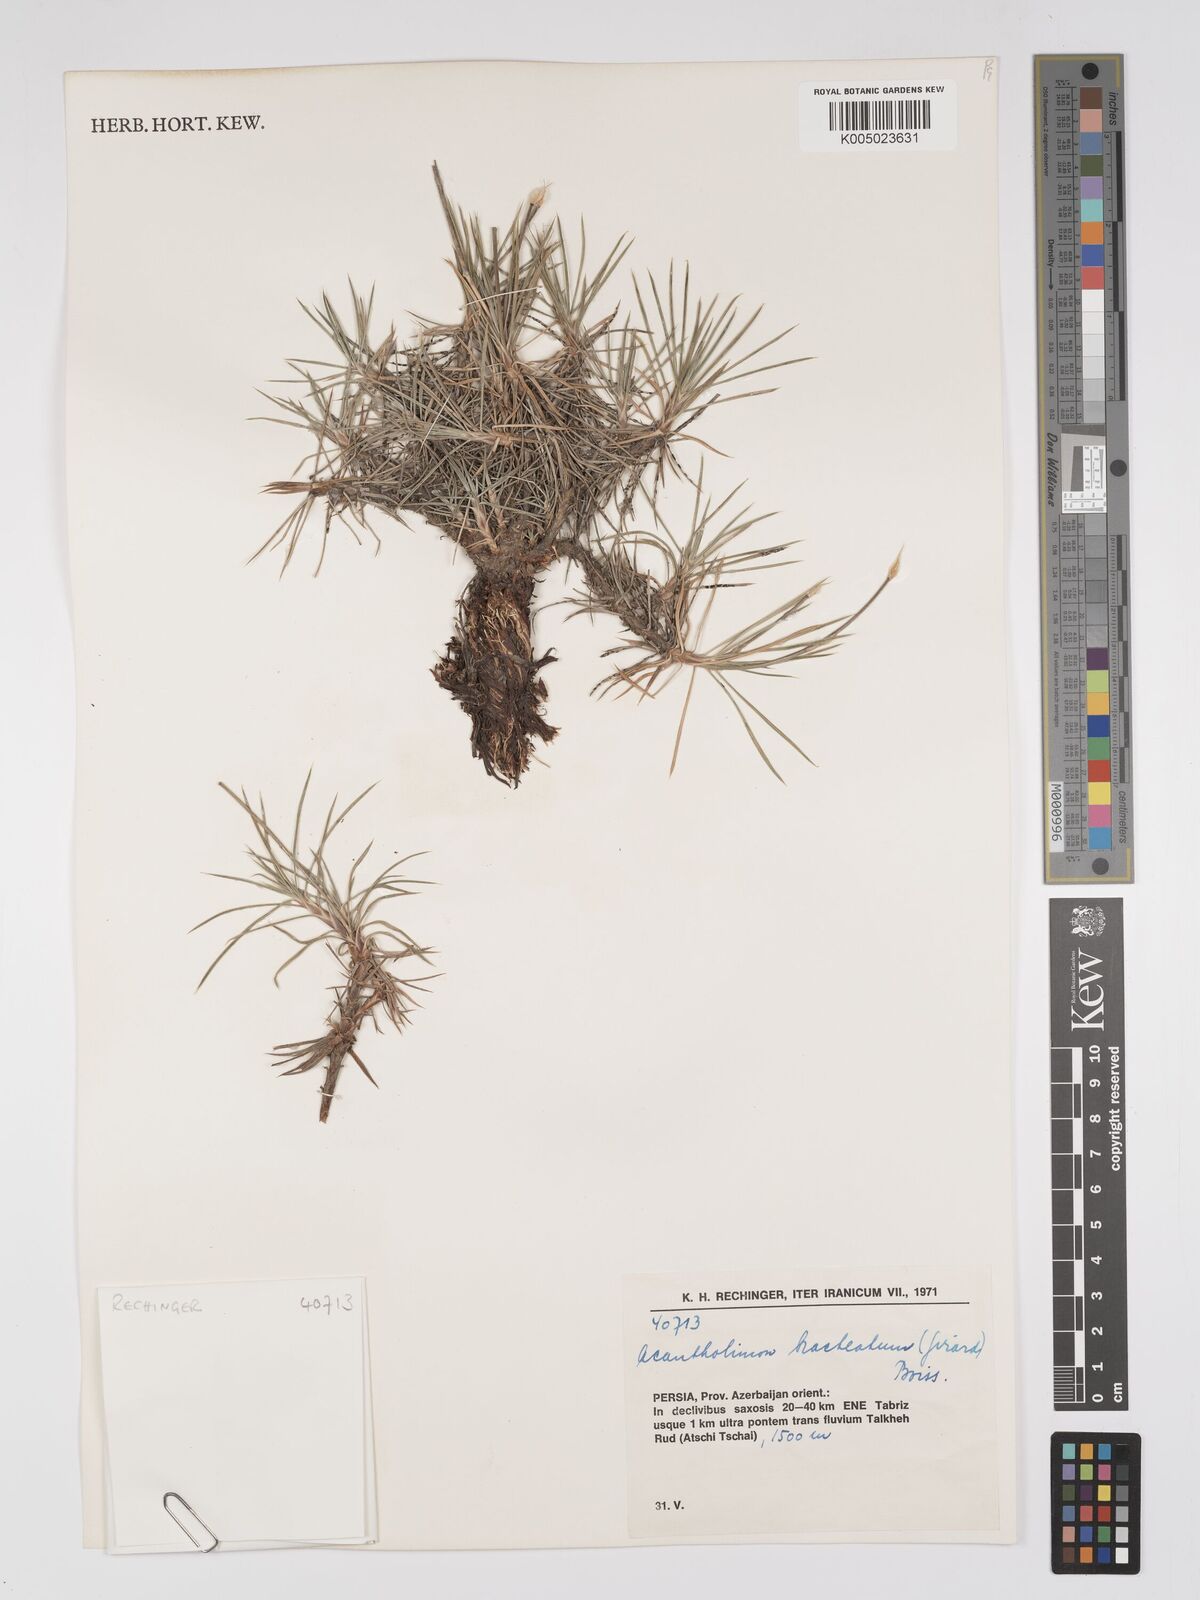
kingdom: Plantae
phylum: Tracheophyta
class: Magnoliopsida
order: Caryophyllales
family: Plumbaginaceae
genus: Acantholimon
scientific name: Acantholimon bracteatum
